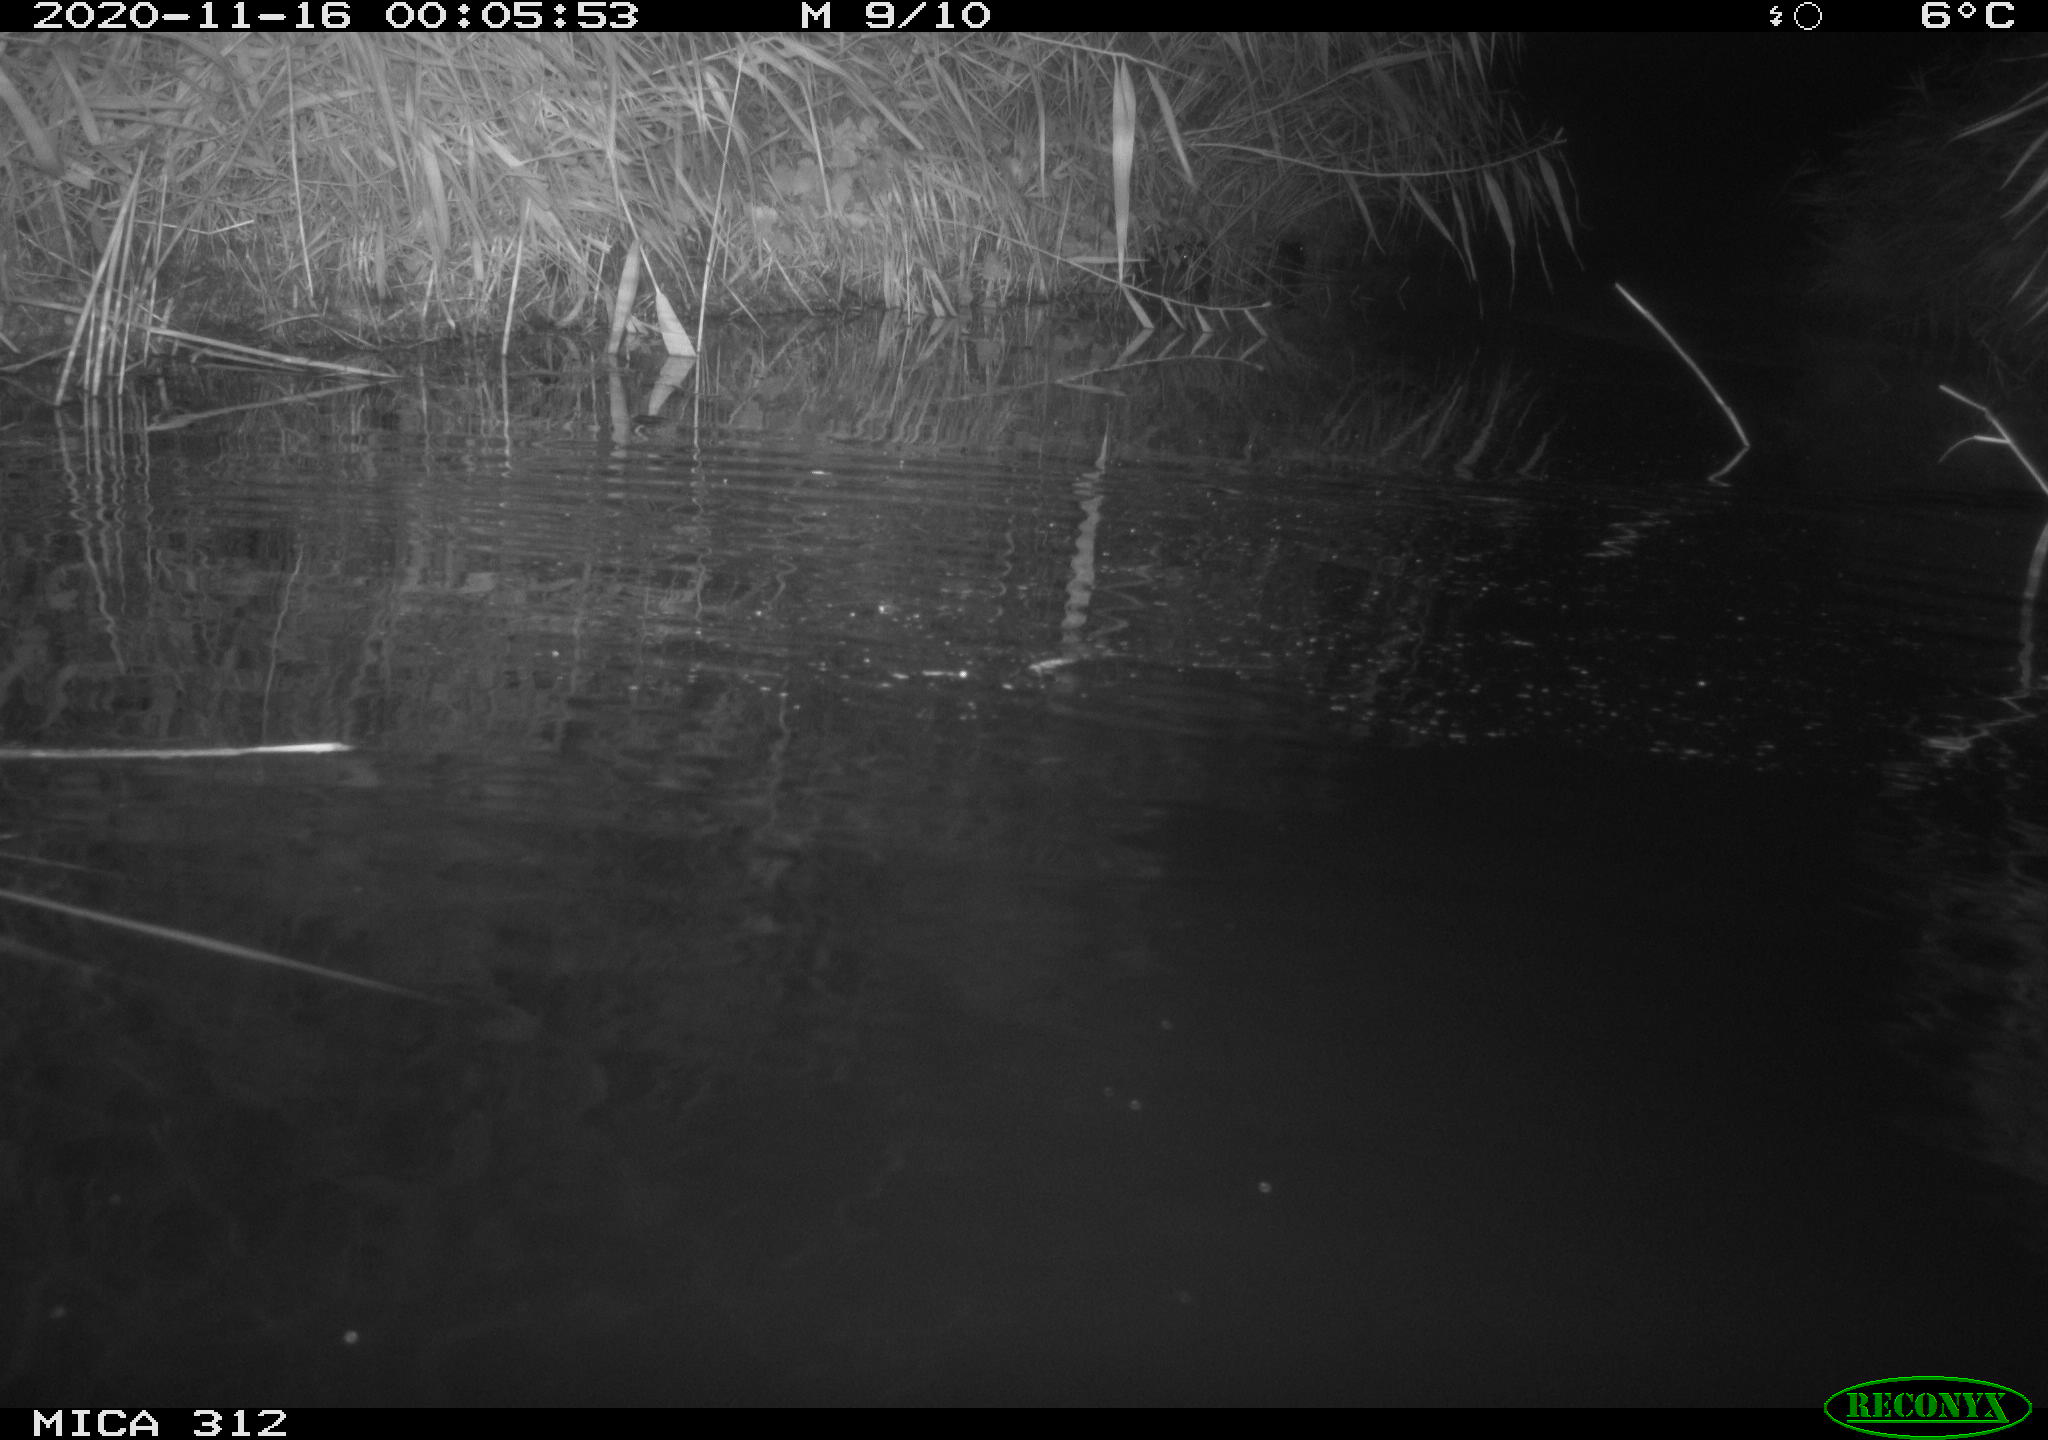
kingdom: Animalia
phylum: Chordata
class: Mammalia
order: Rodentia
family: Muridae
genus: Rattus
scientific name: Rattus norvegicus
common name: Brown rat
